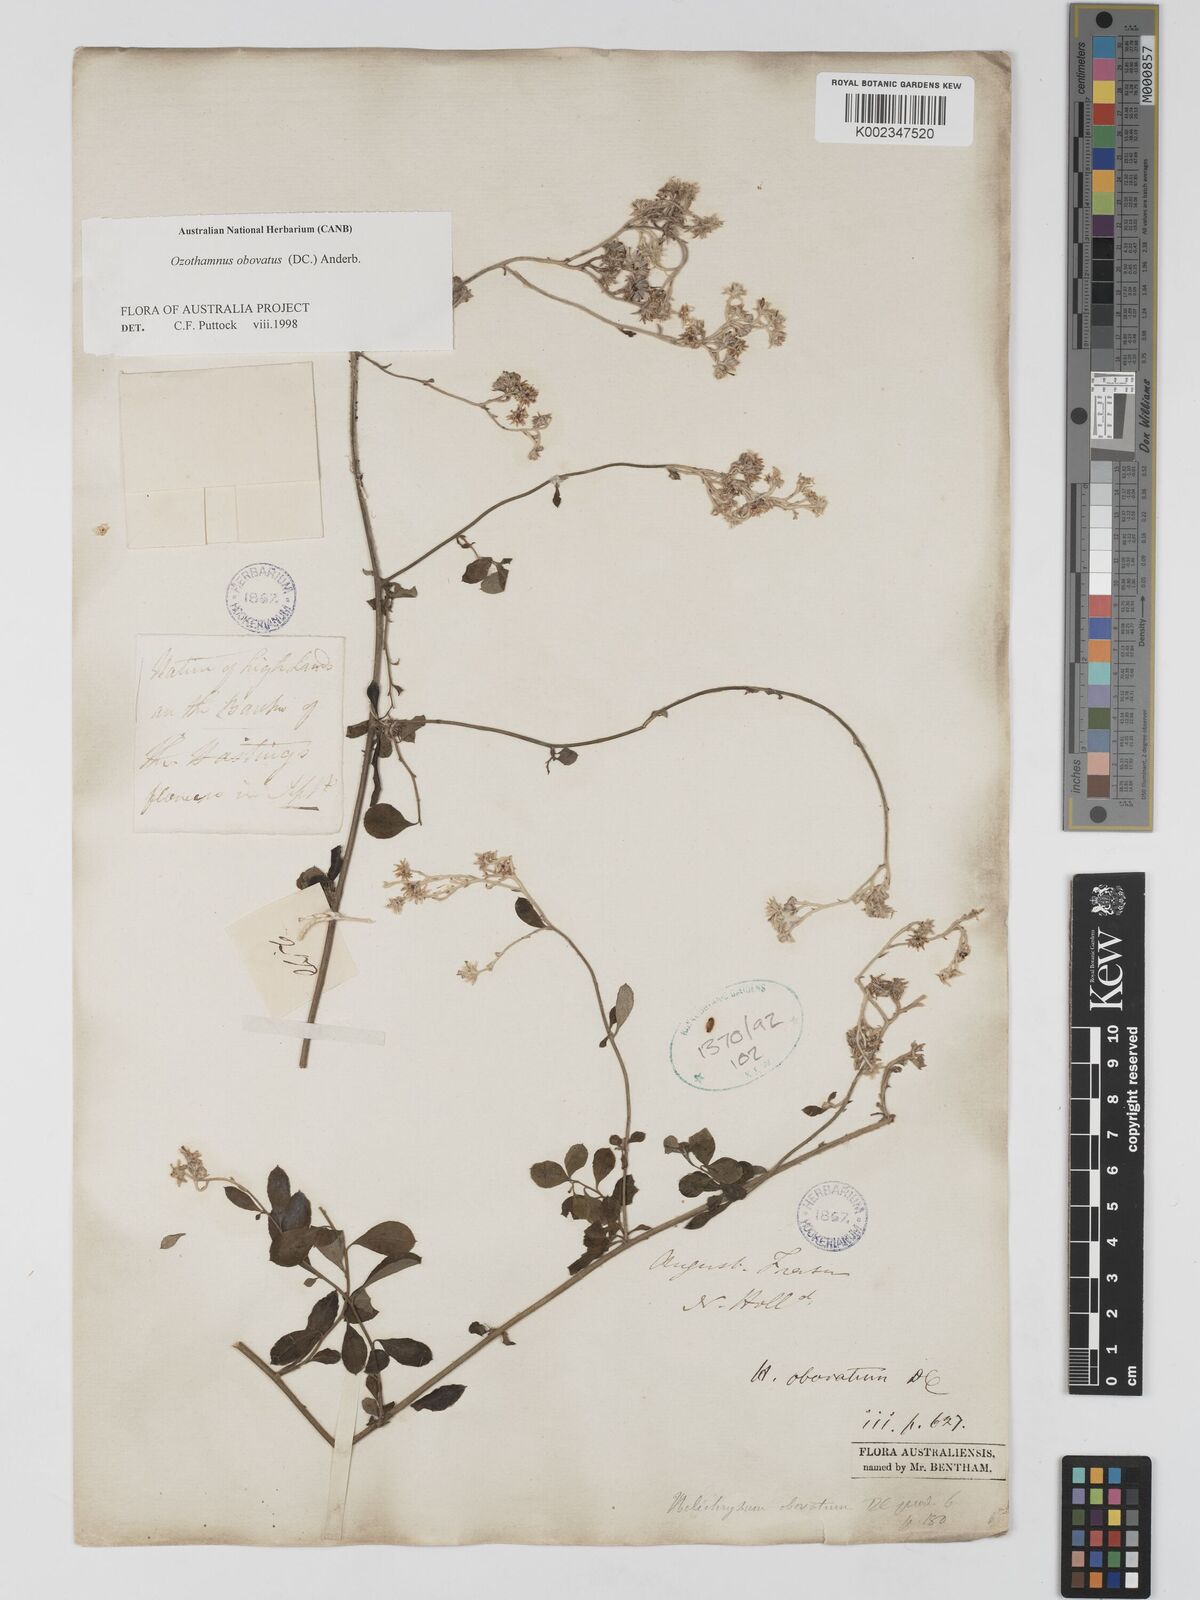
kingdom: Plantae
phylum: Tracheophyta
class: Magnoliopsida
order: Asterales
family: Asteraceae
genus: Ozothamnus
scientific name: Ozothamnus obovatus
